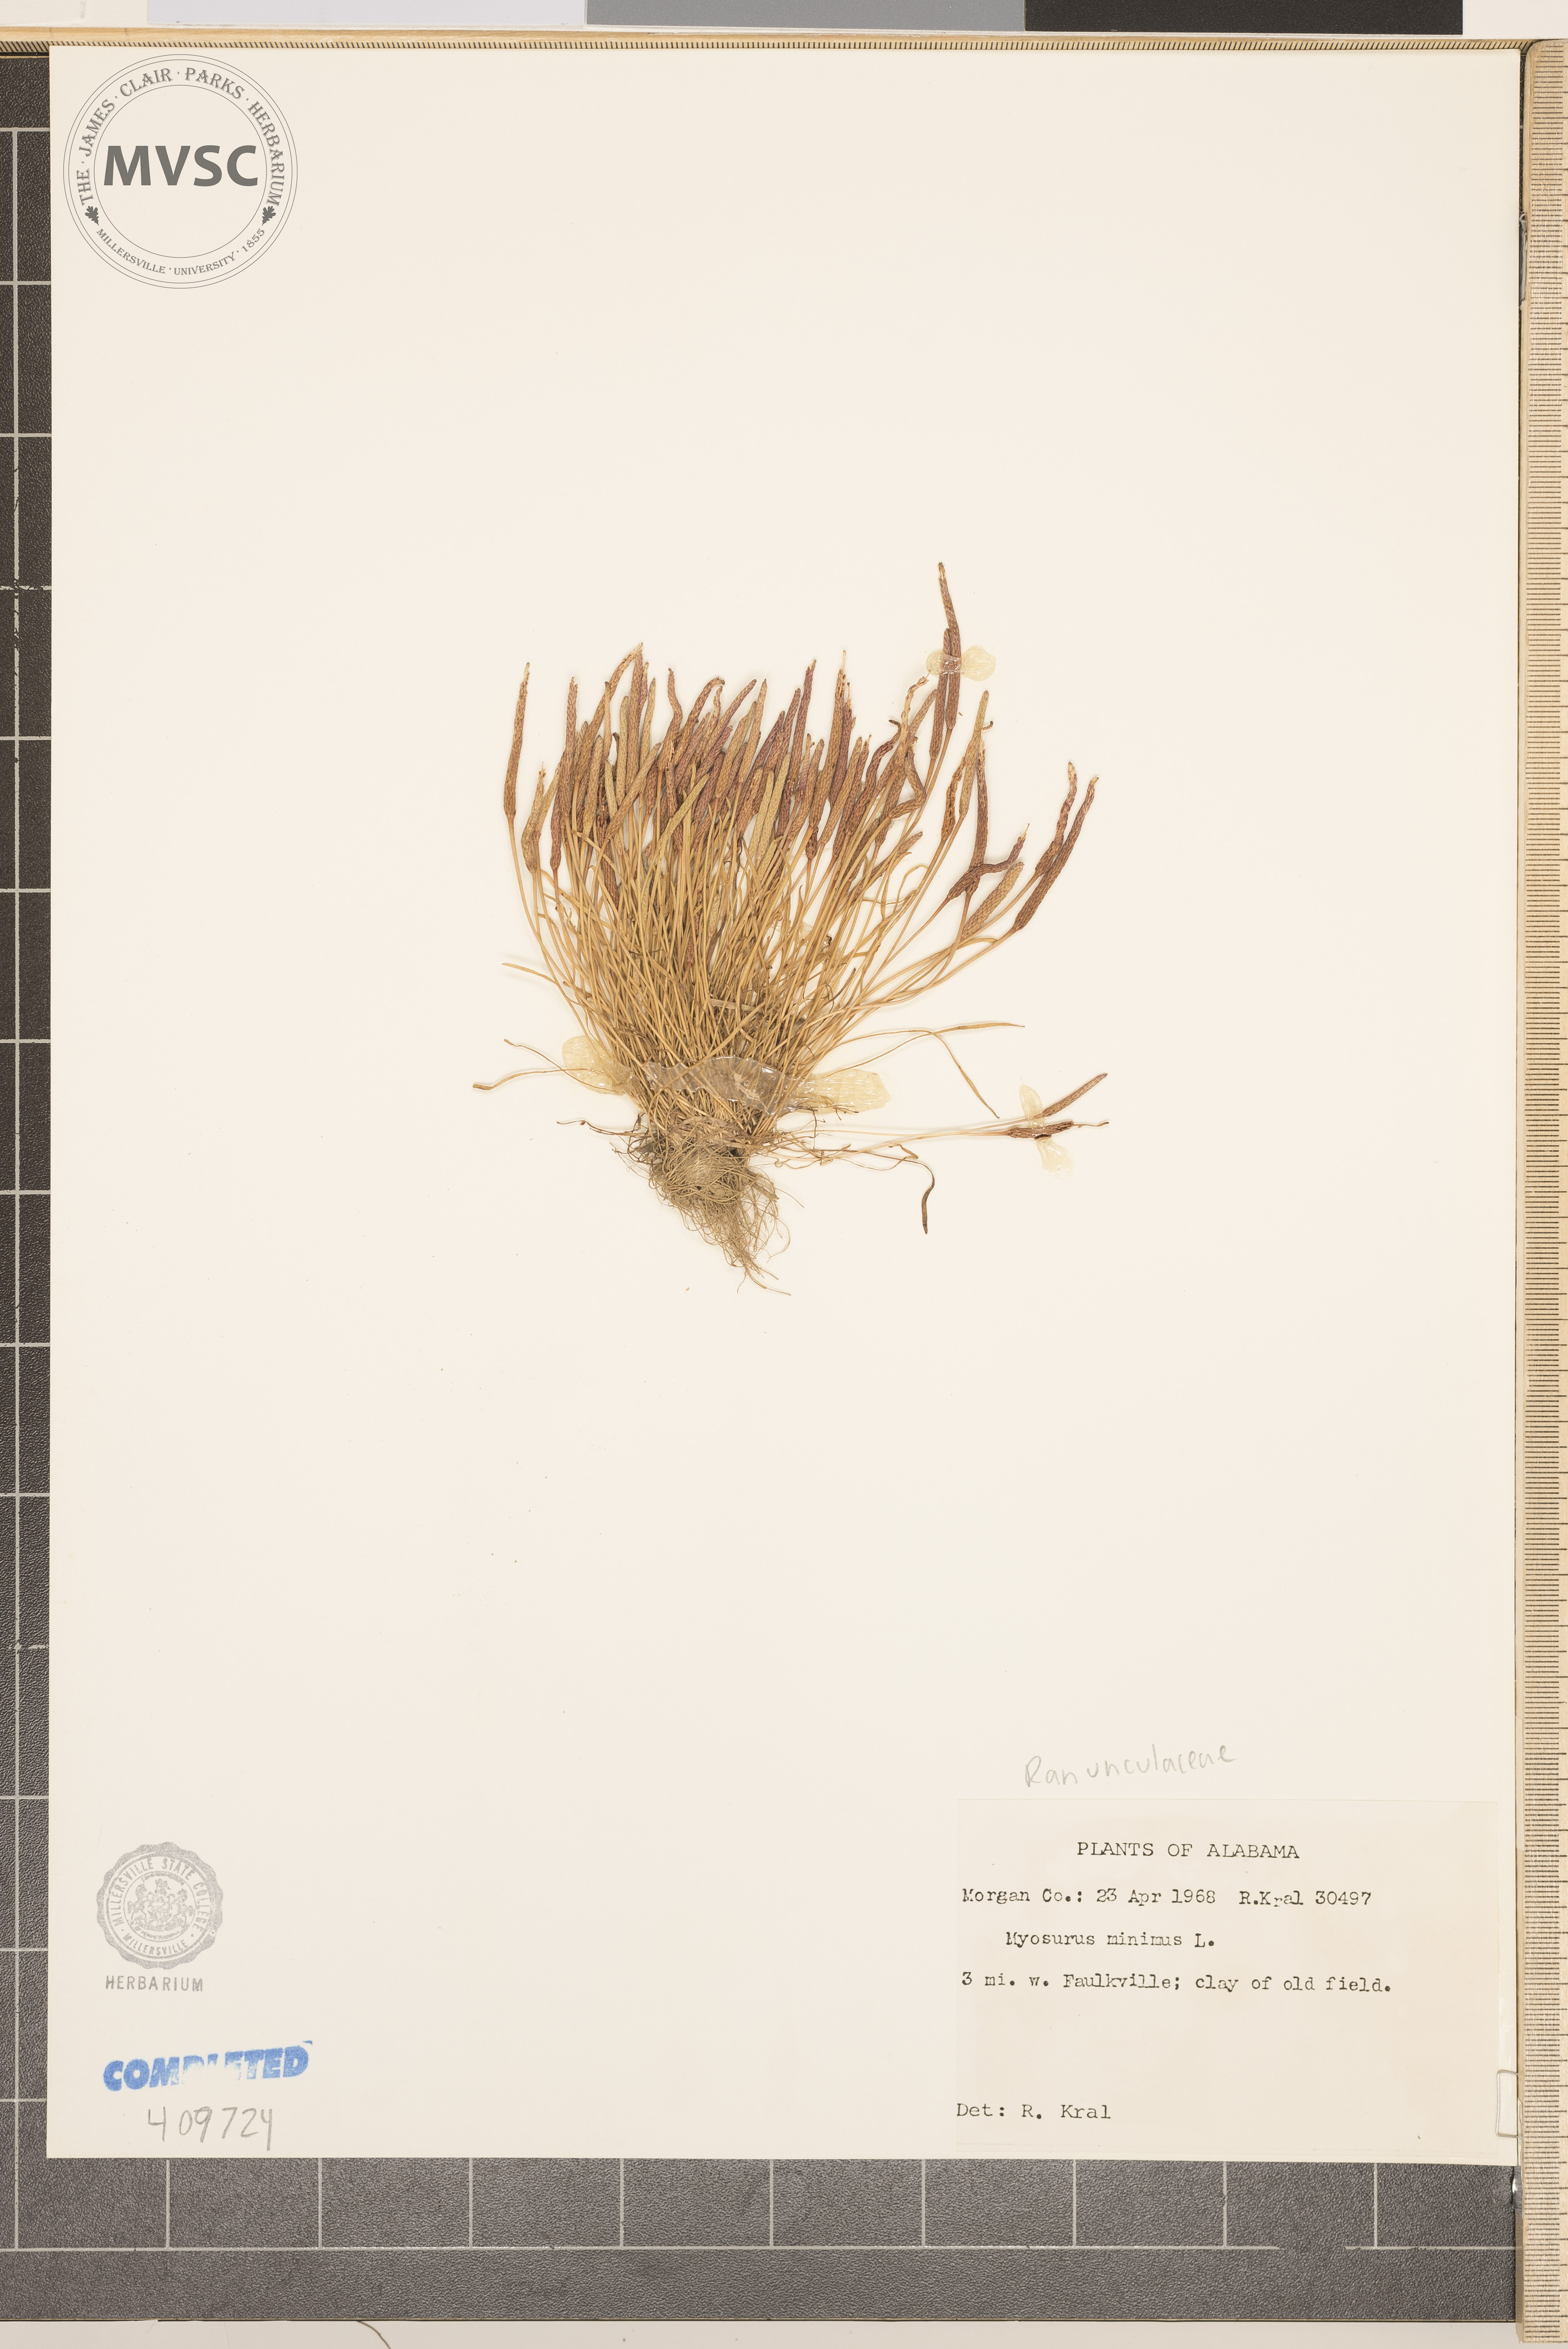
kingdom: Plantae
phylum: Tracheophyta
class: Magnoliopsida
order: Ranunculales
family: Ranunculaceae
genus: Myosurus
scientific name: Myosurus minimus
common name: Mousetail
